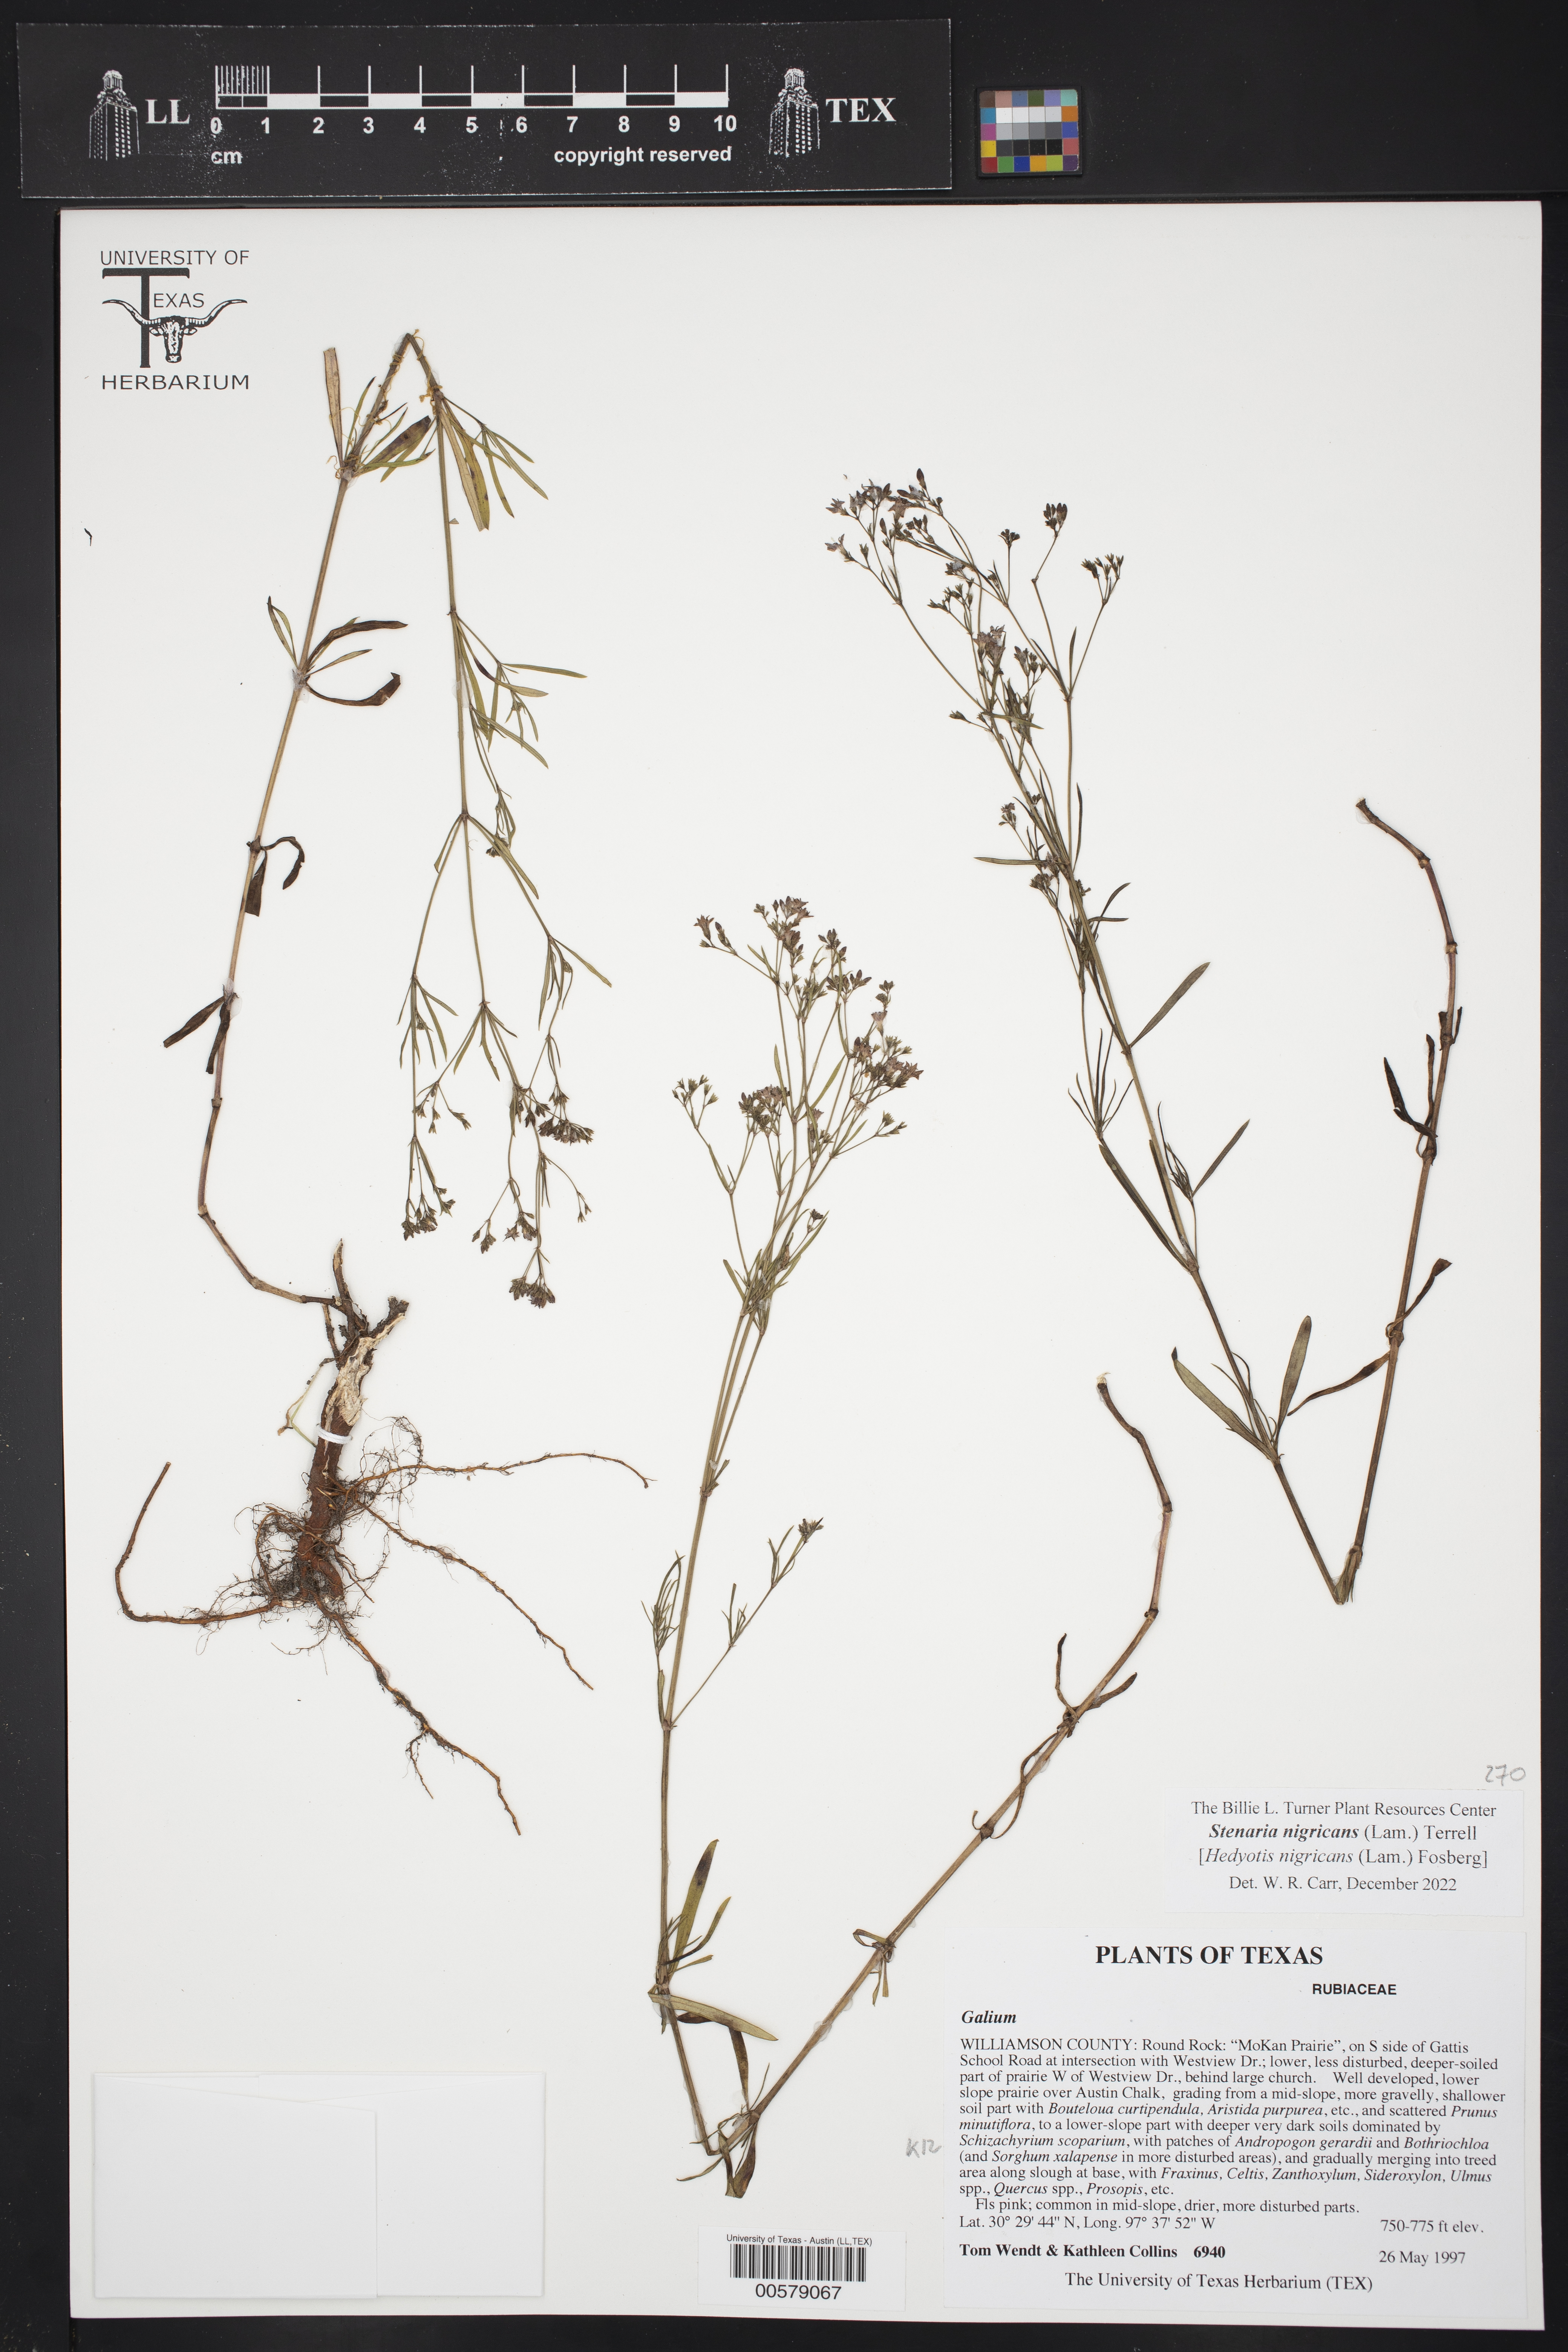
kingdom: Plantae
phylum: Tracheophyta
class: Magnoliopsida
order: Gentianales
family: Rubiaceae
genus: Stenaria
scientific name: Stenaria nigricans
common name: Diamondflowers
